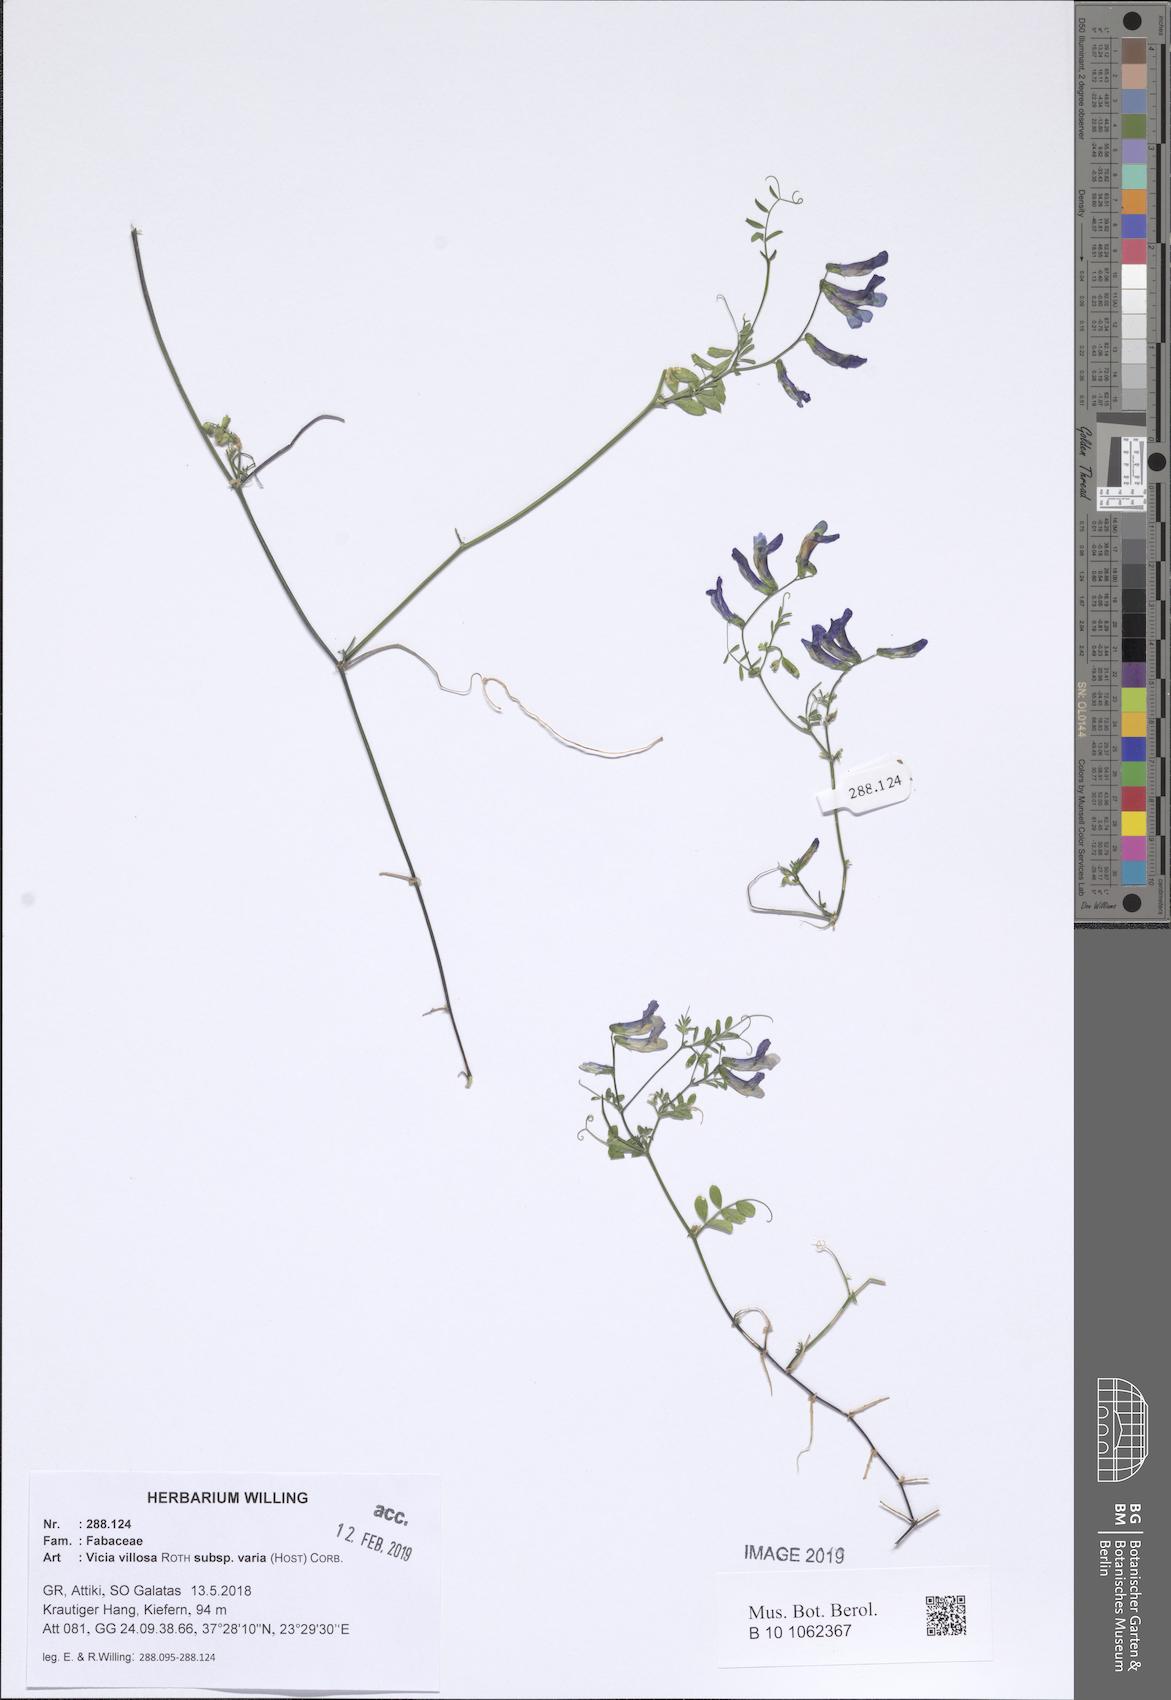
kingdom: Plantae
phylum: Tracheophyta
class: Magnoliopsida
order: Fabales
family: Fabaceae
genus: Vicia
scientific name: Vicia villosa
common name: Fodder vetch
